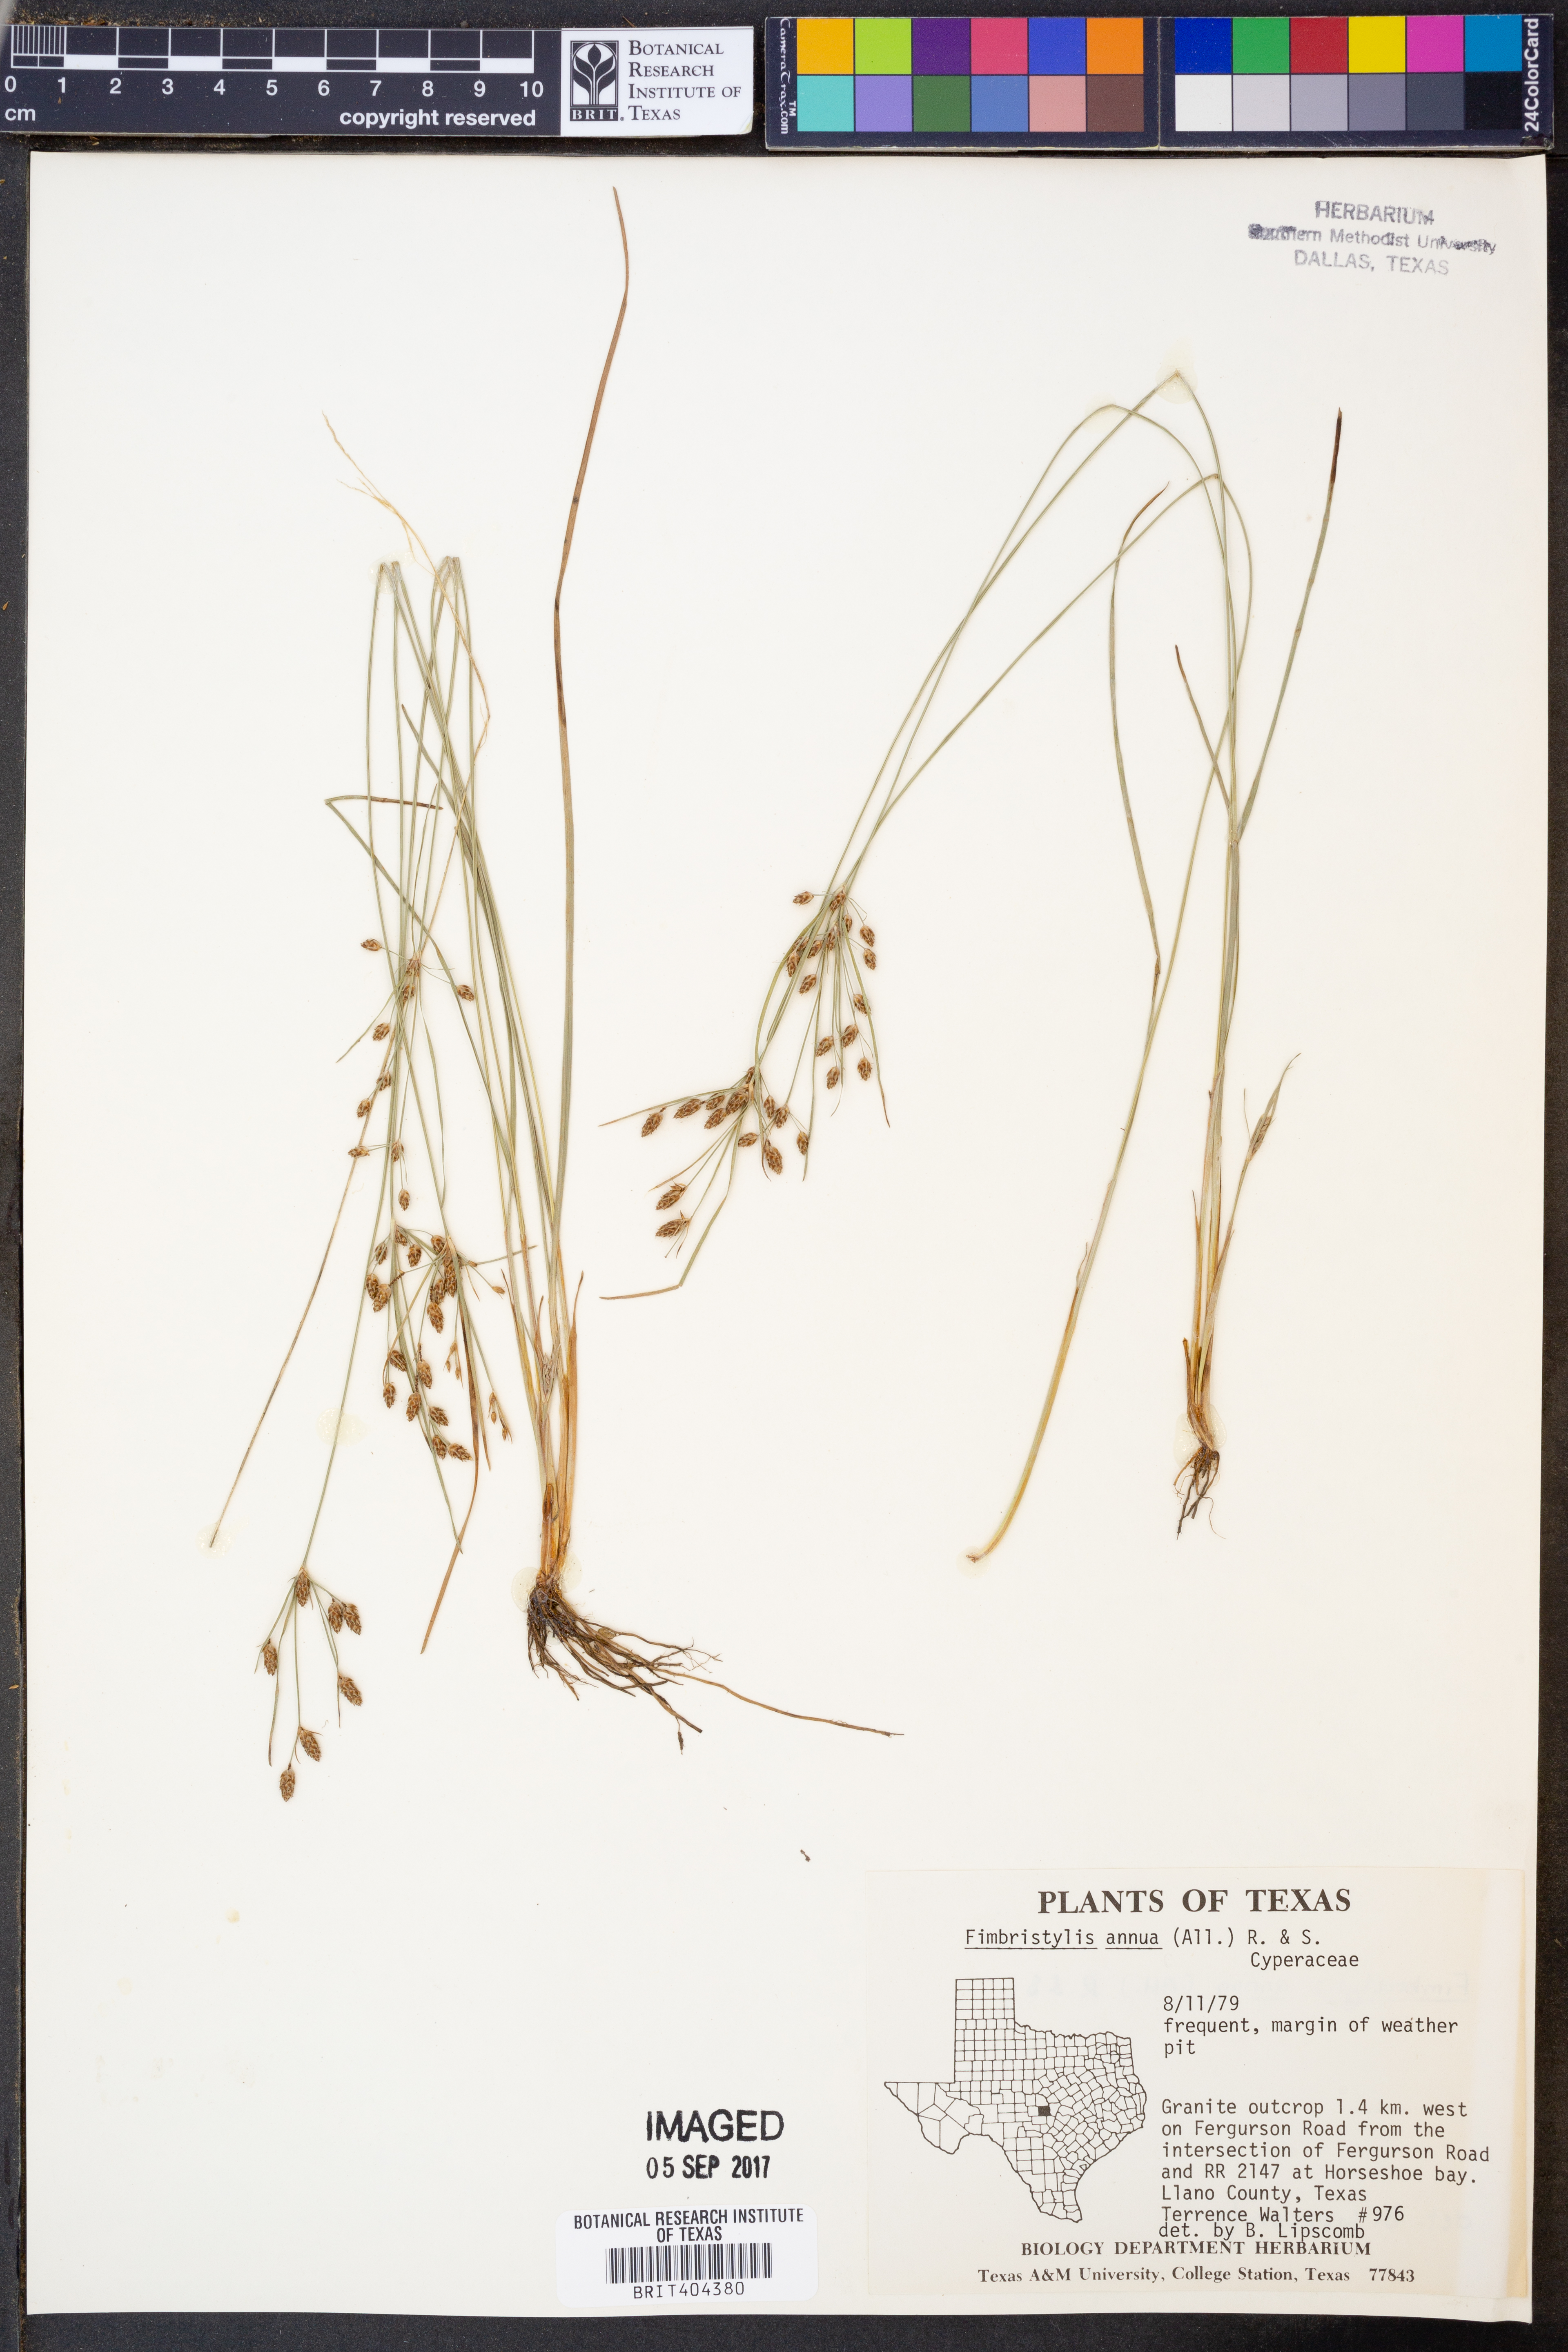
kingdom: Plantae
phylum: Tracheophyta
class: Liliopsida
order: Poales
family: Cyperaceae
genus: Fimbristylis
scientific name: Fimbristylis dichotoma
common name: Forked fimbry
